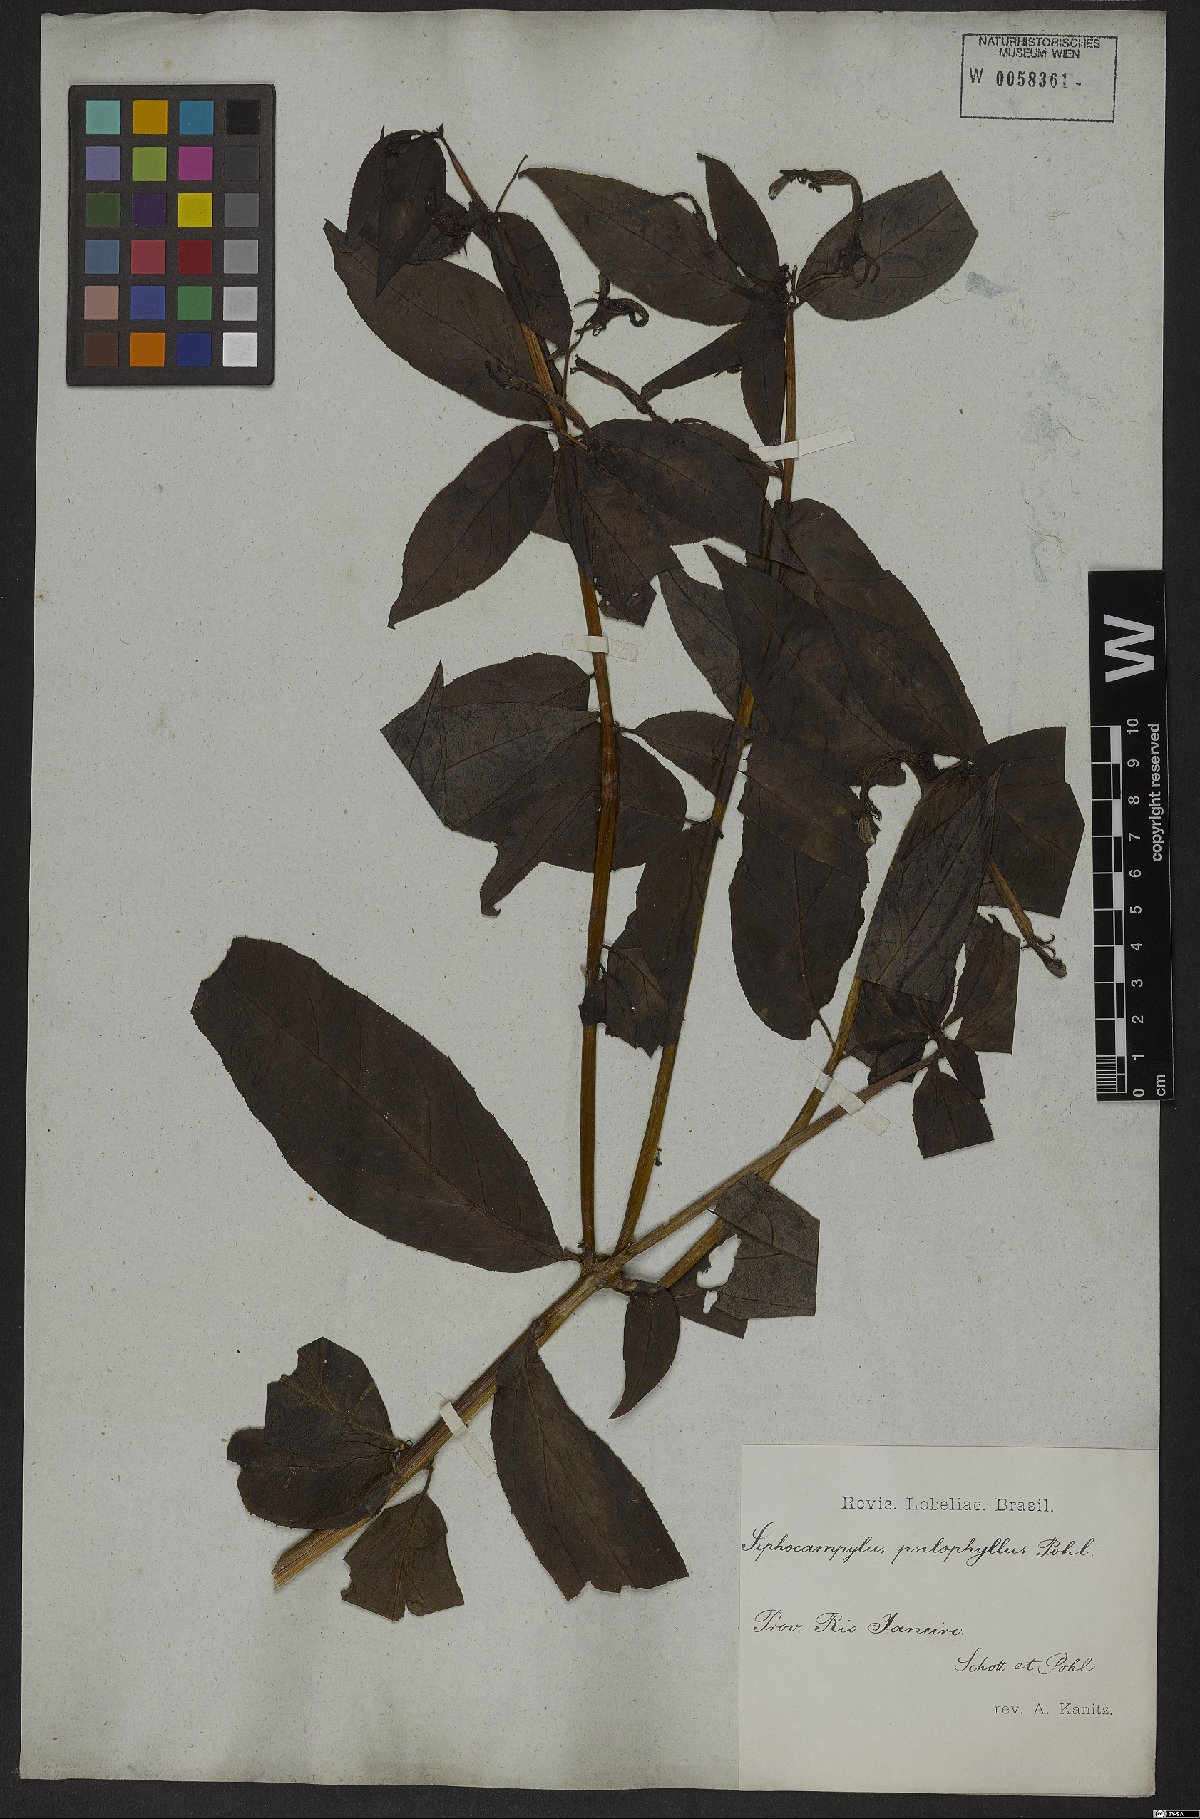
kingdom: Plantae
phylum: Tracheophyta
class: Magnoliopsida
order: Asterales
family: Campanulaceae
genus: Siphocampylus
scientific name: Siphocampylus psilophyllus
